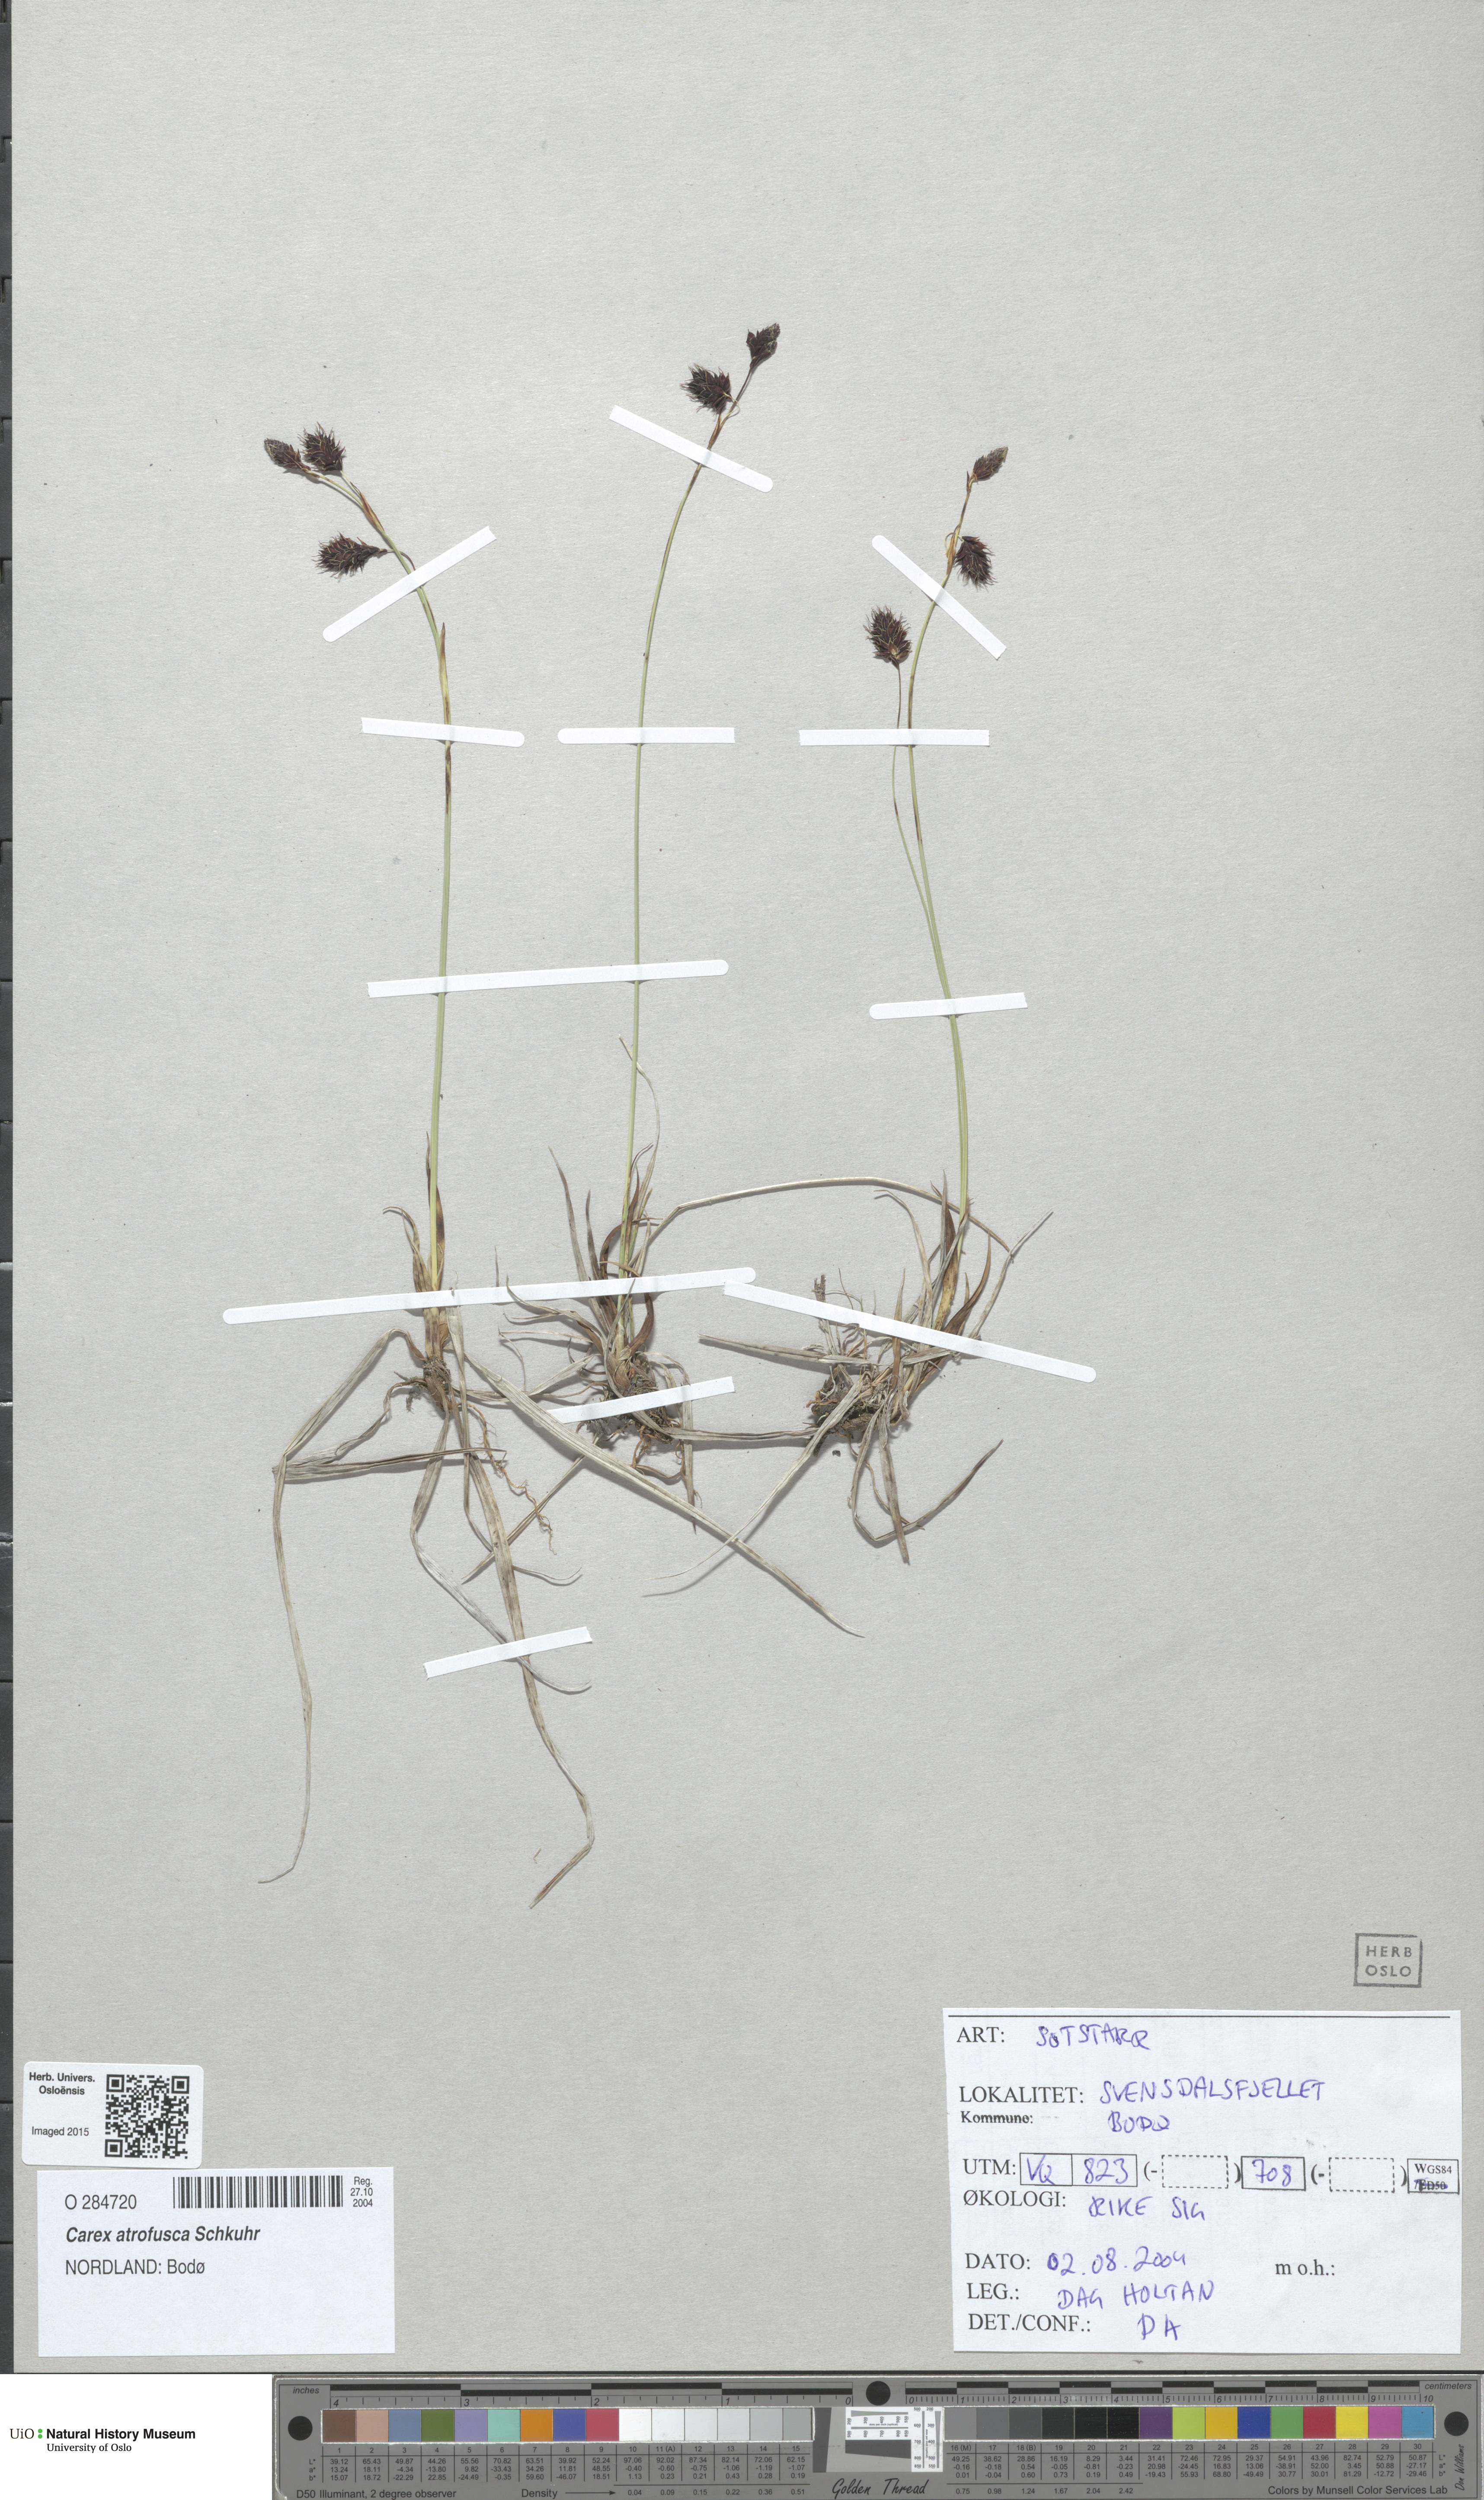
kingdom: Plantae
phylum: Tracheophyta
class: Liliopsida
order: Poales
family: Cyperaceae
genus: Carex
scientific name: Carex atrofusca
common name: Scorched alpine-sedge
